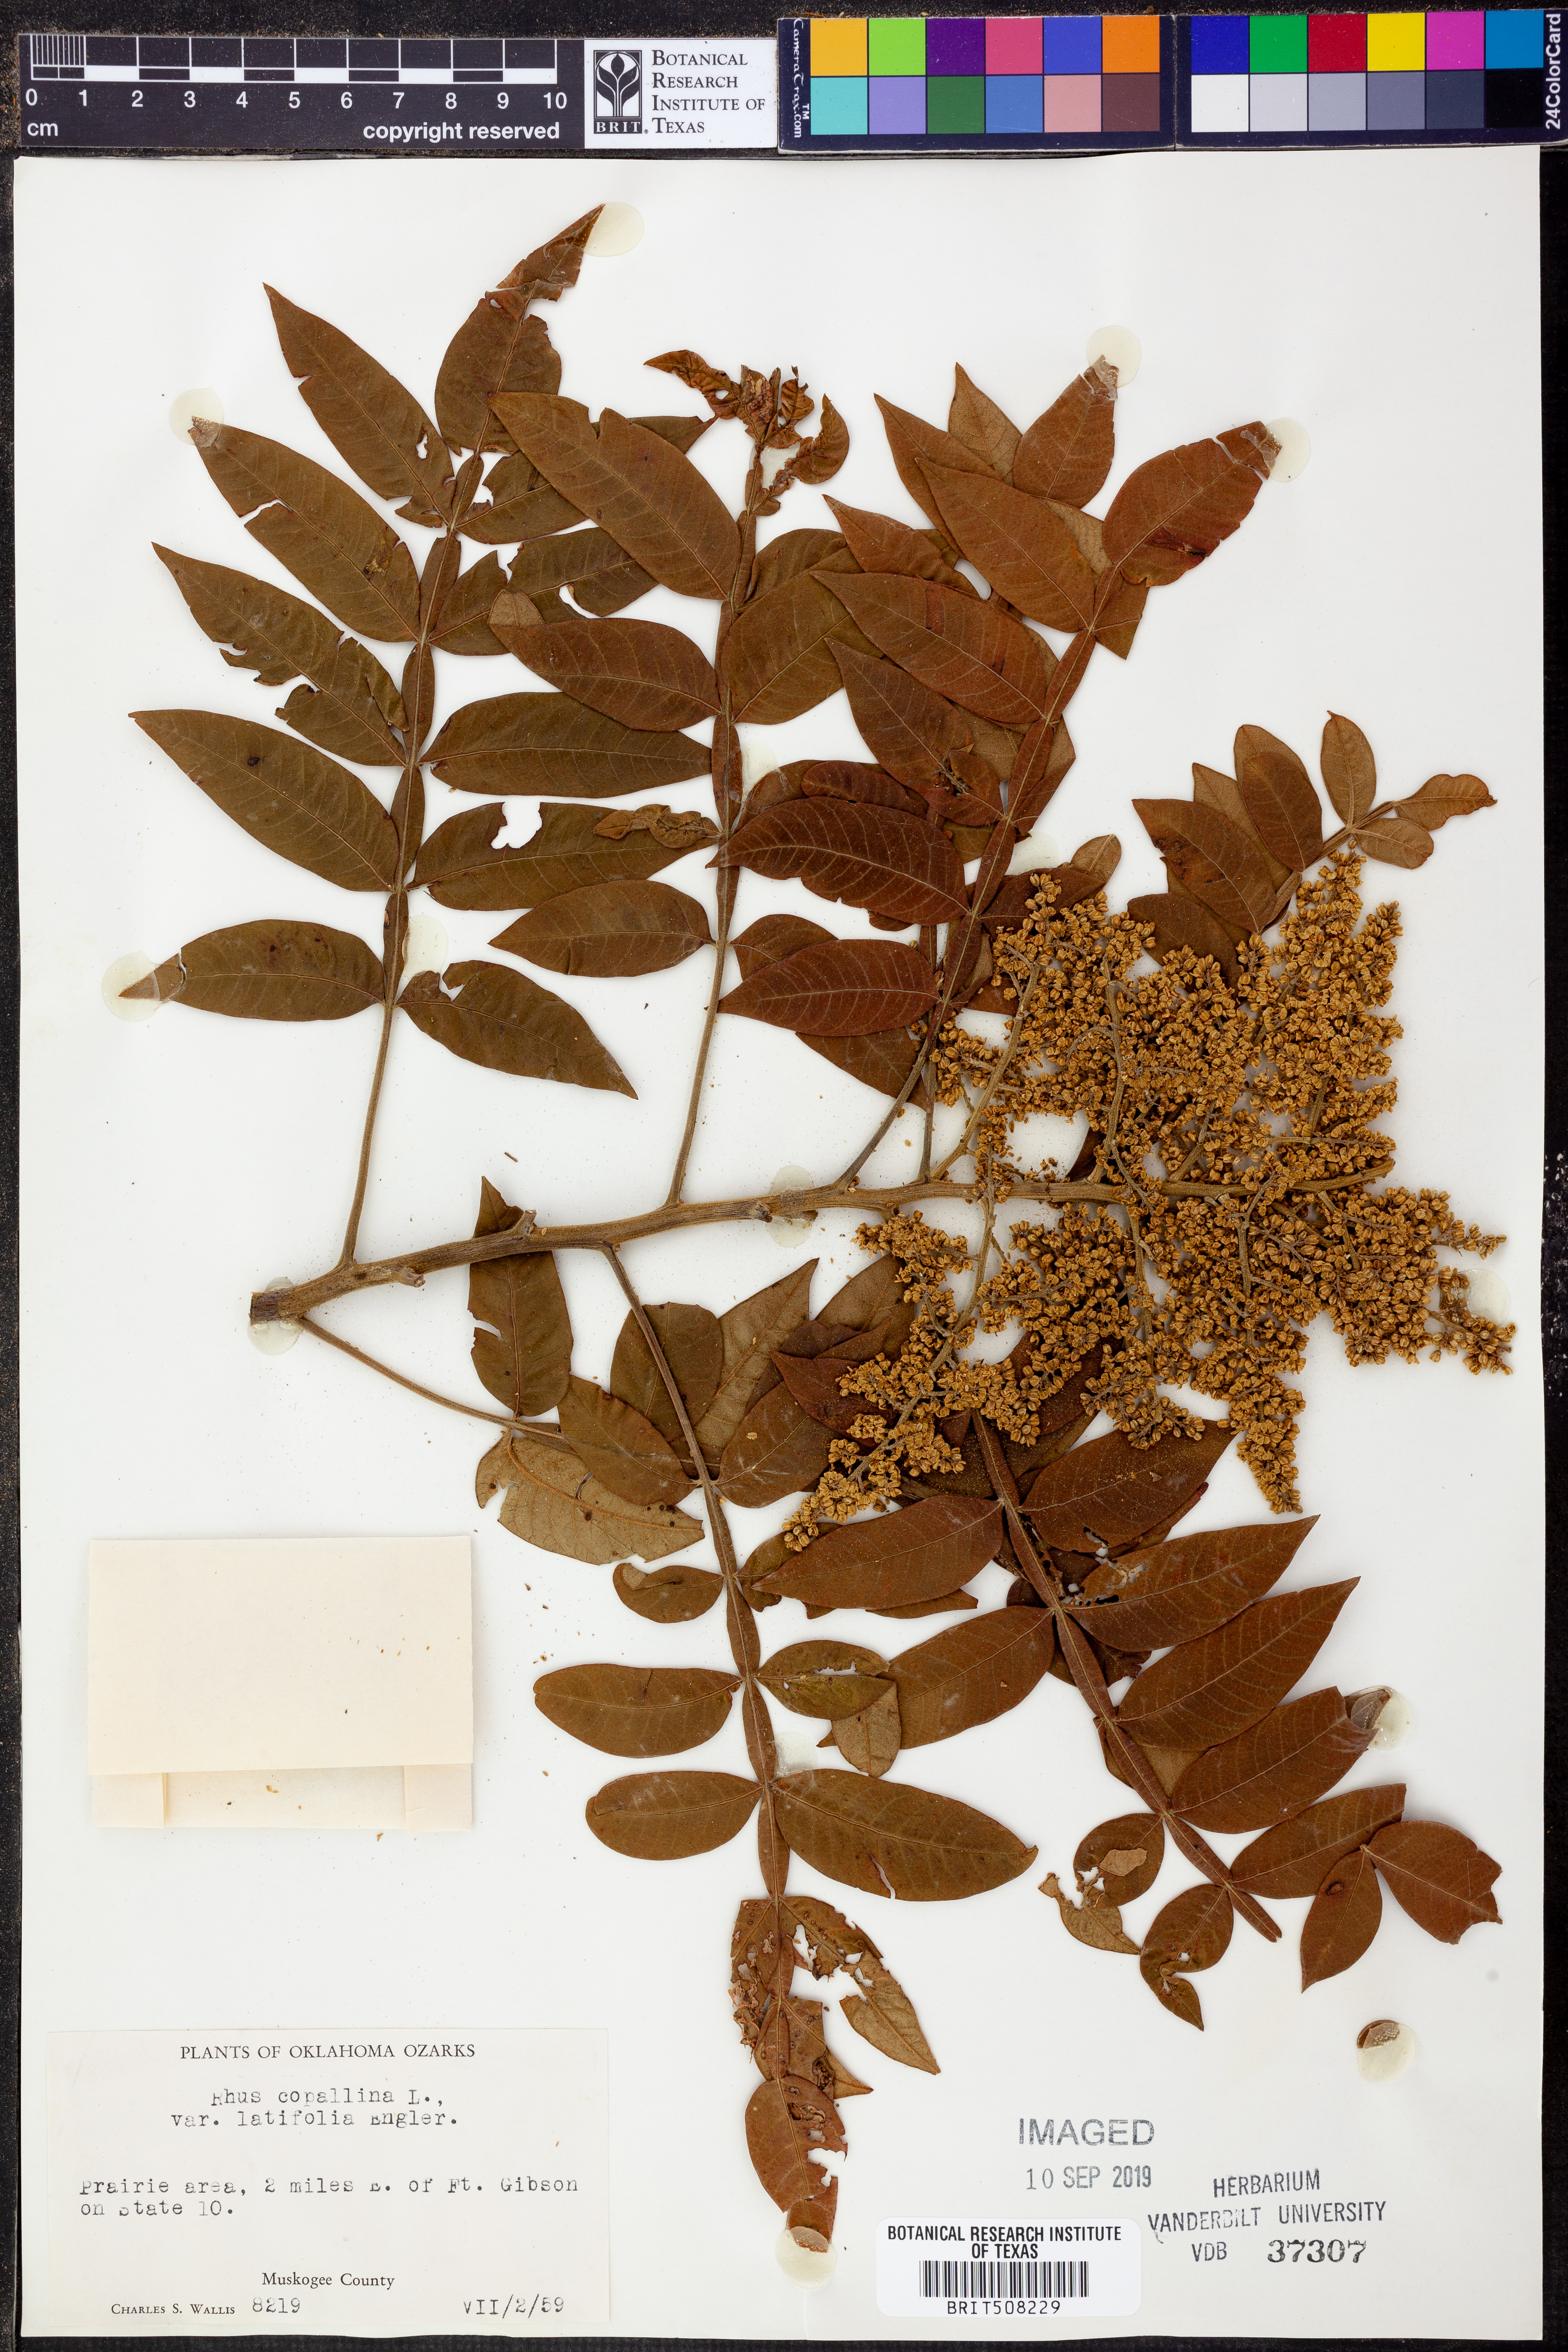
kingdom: Plantae
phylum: Tracheophyta
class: Magnoliopsida
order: Sapindales
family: Anacardiaceae
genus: Rhus
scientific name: Rhus copallina
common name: Shining sumac
